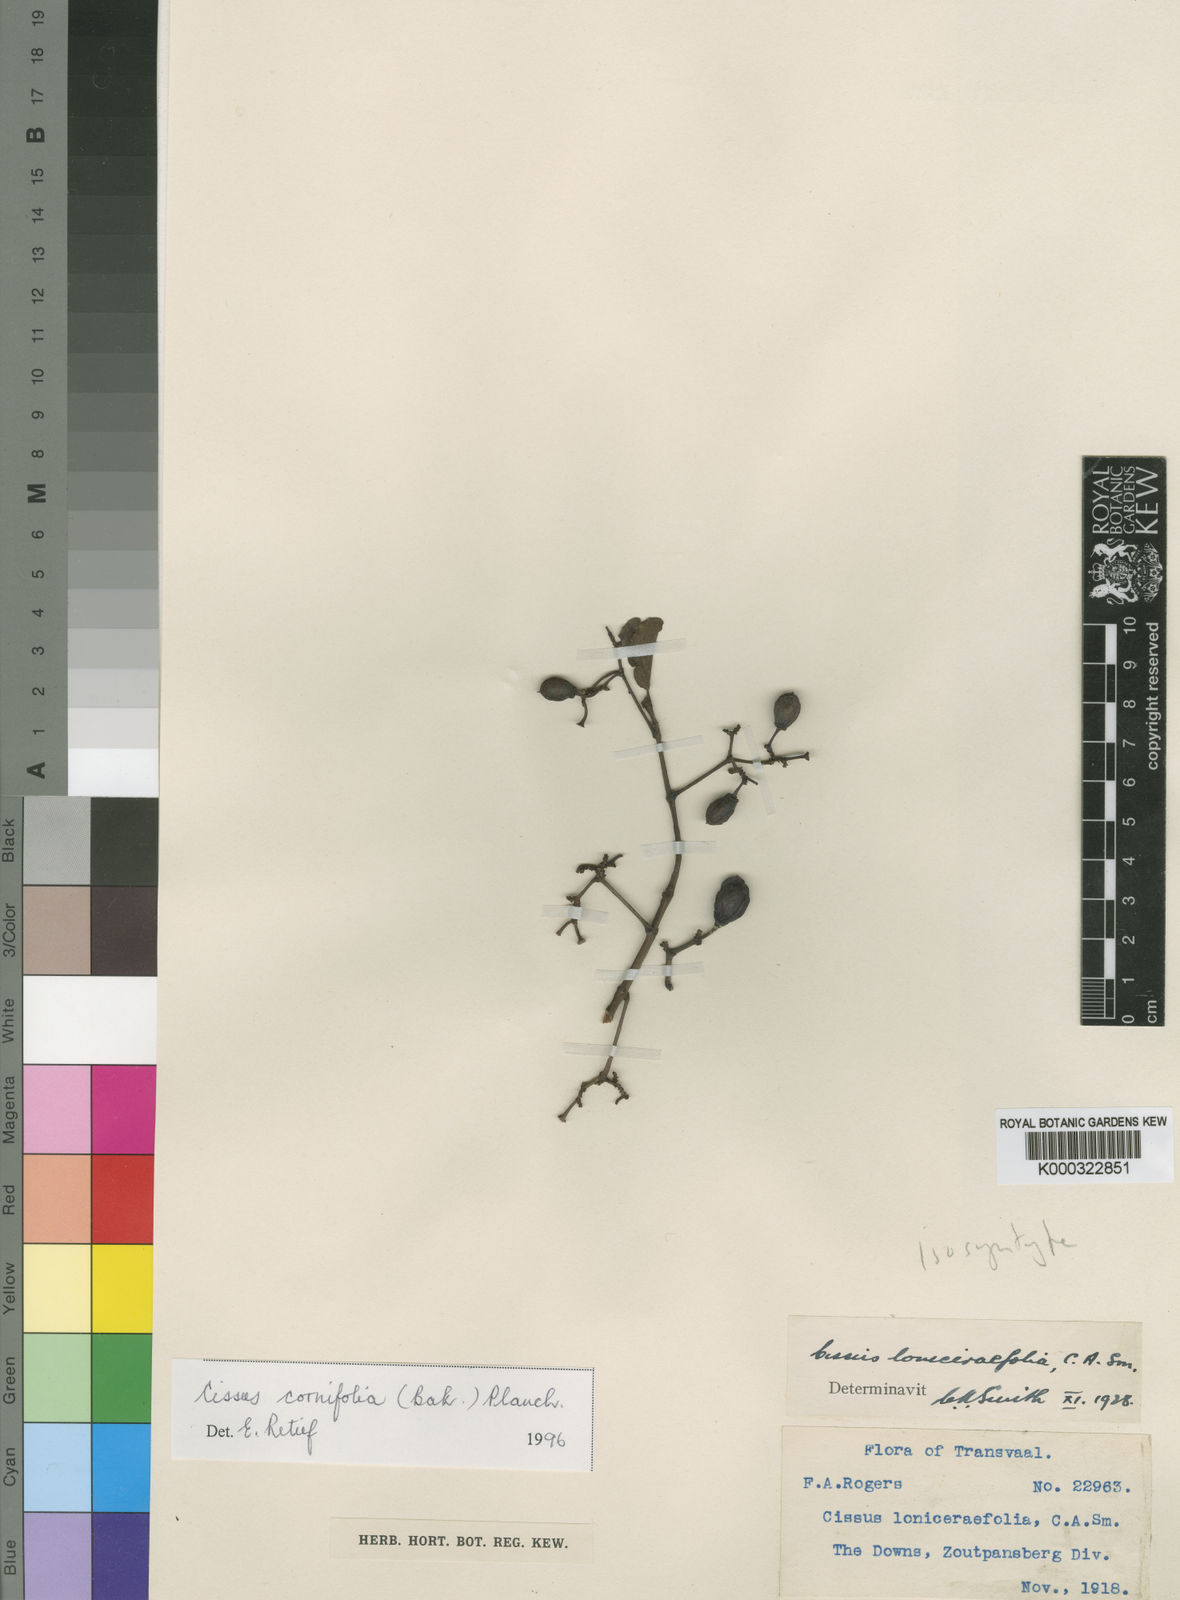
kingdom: Plantae
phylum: Tracheophyta
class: Magnoliopsida
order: Vitales
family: Vitaceae
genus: Cissus
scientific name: Cissus cornifolia
